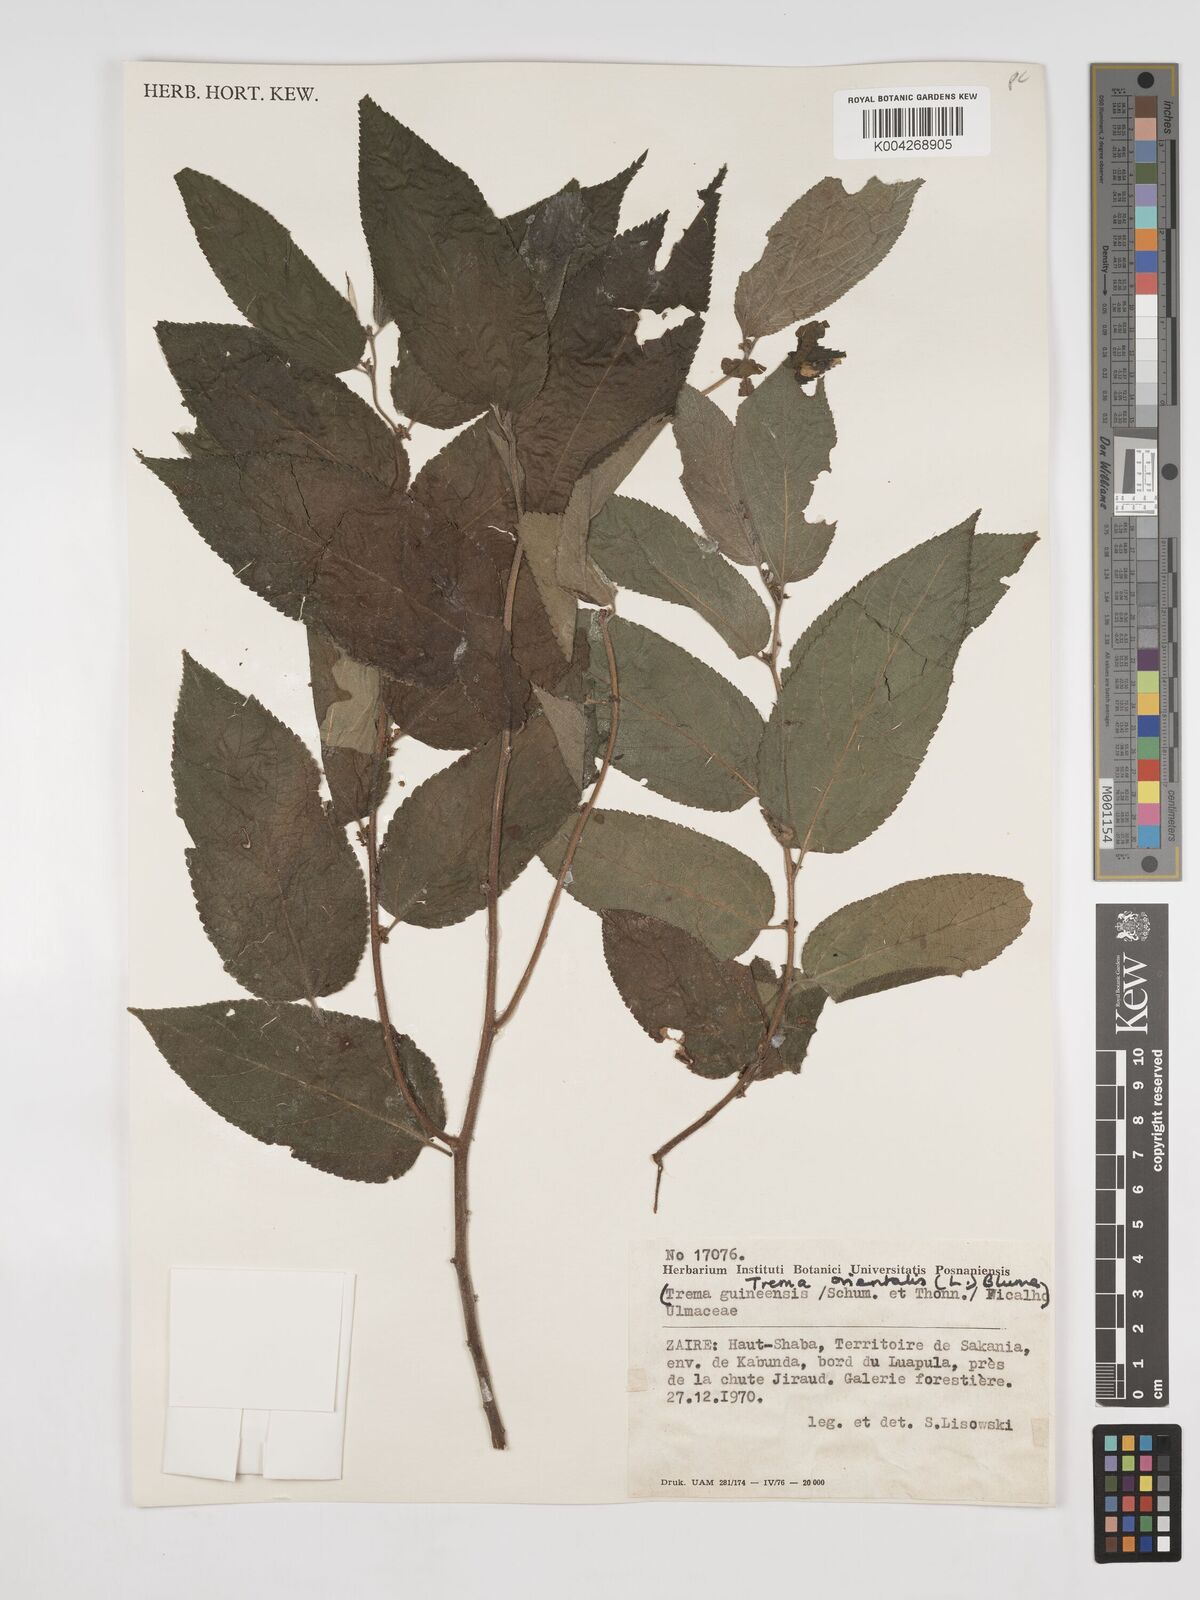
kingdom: Plantae
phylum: Tracheophyta
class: Magnoliopsida
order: Rosales
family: Cannabaceae
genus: Trema
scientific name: Trema orientale
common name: Indian charcoal tree
